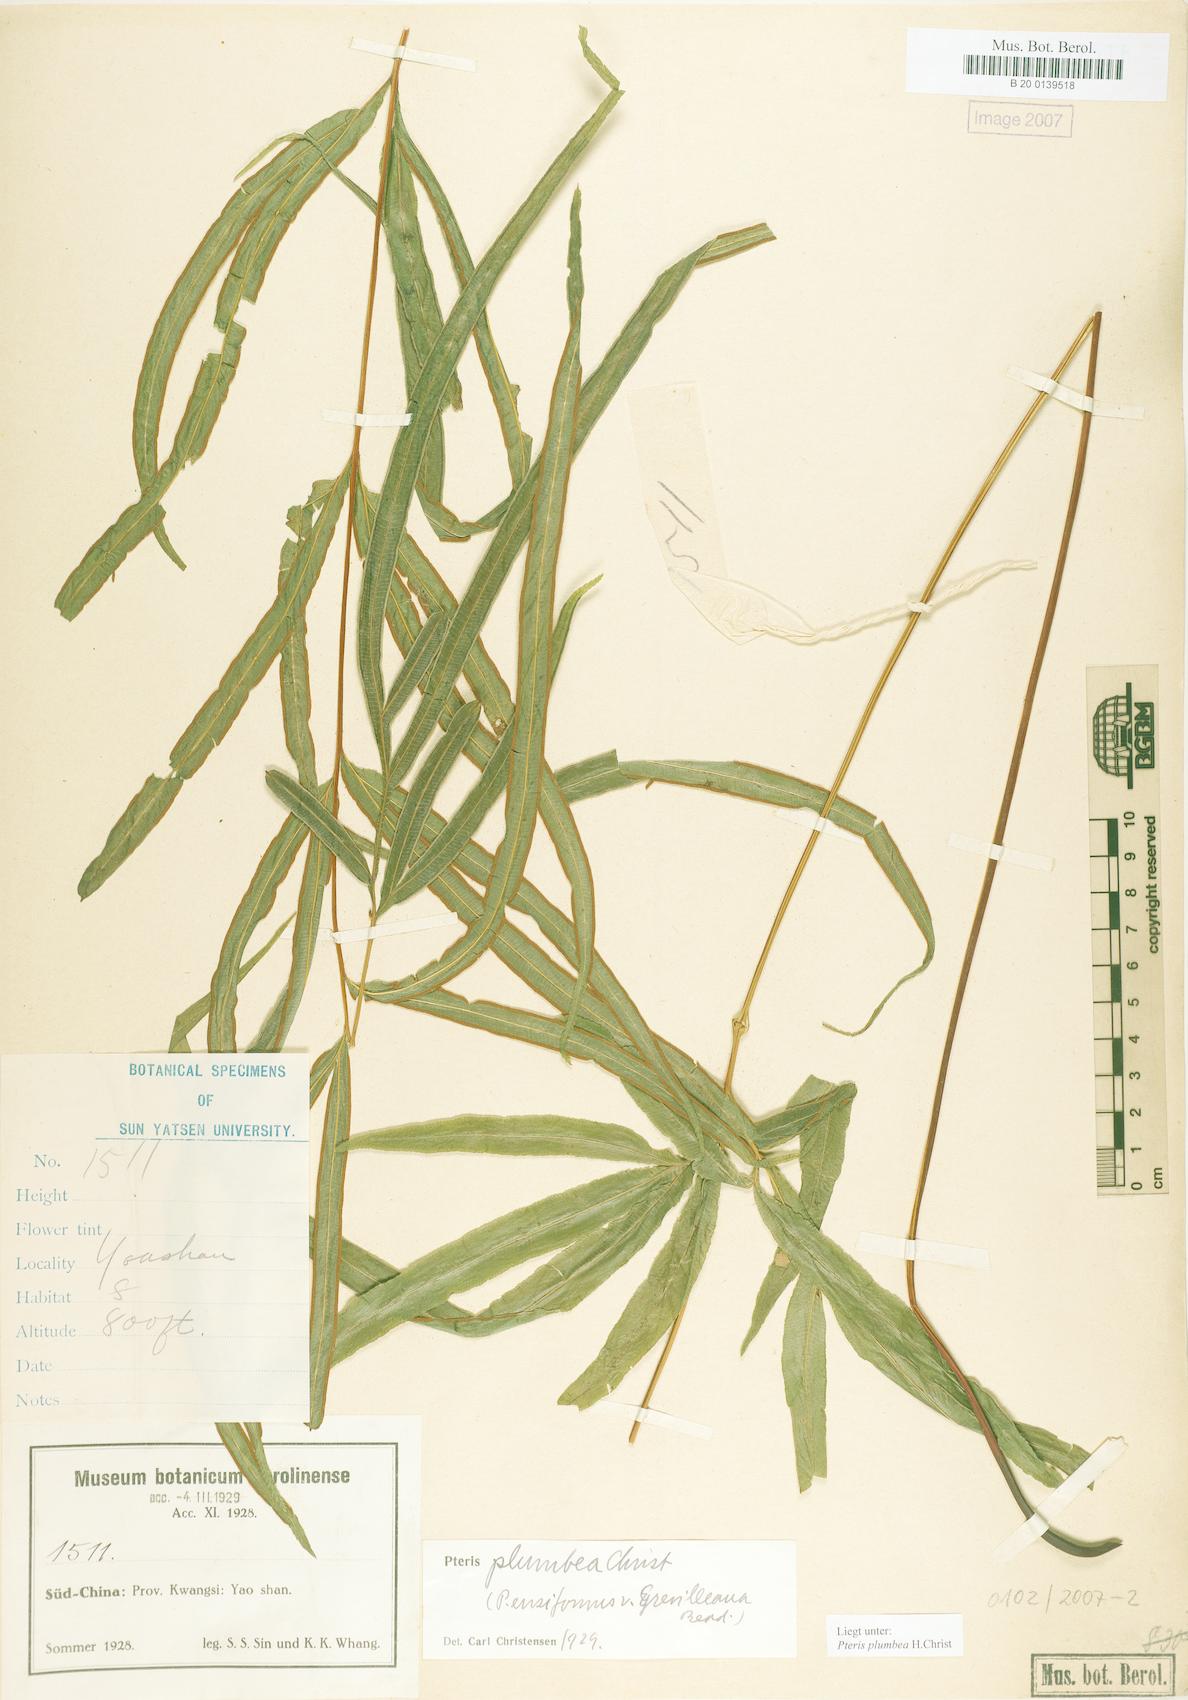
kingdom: Plantae
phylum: Tracheophyta
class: Polypodiopsida
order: Polypodiales
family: Pteridaceae
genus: Pteris
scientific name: Pteris cadieri
